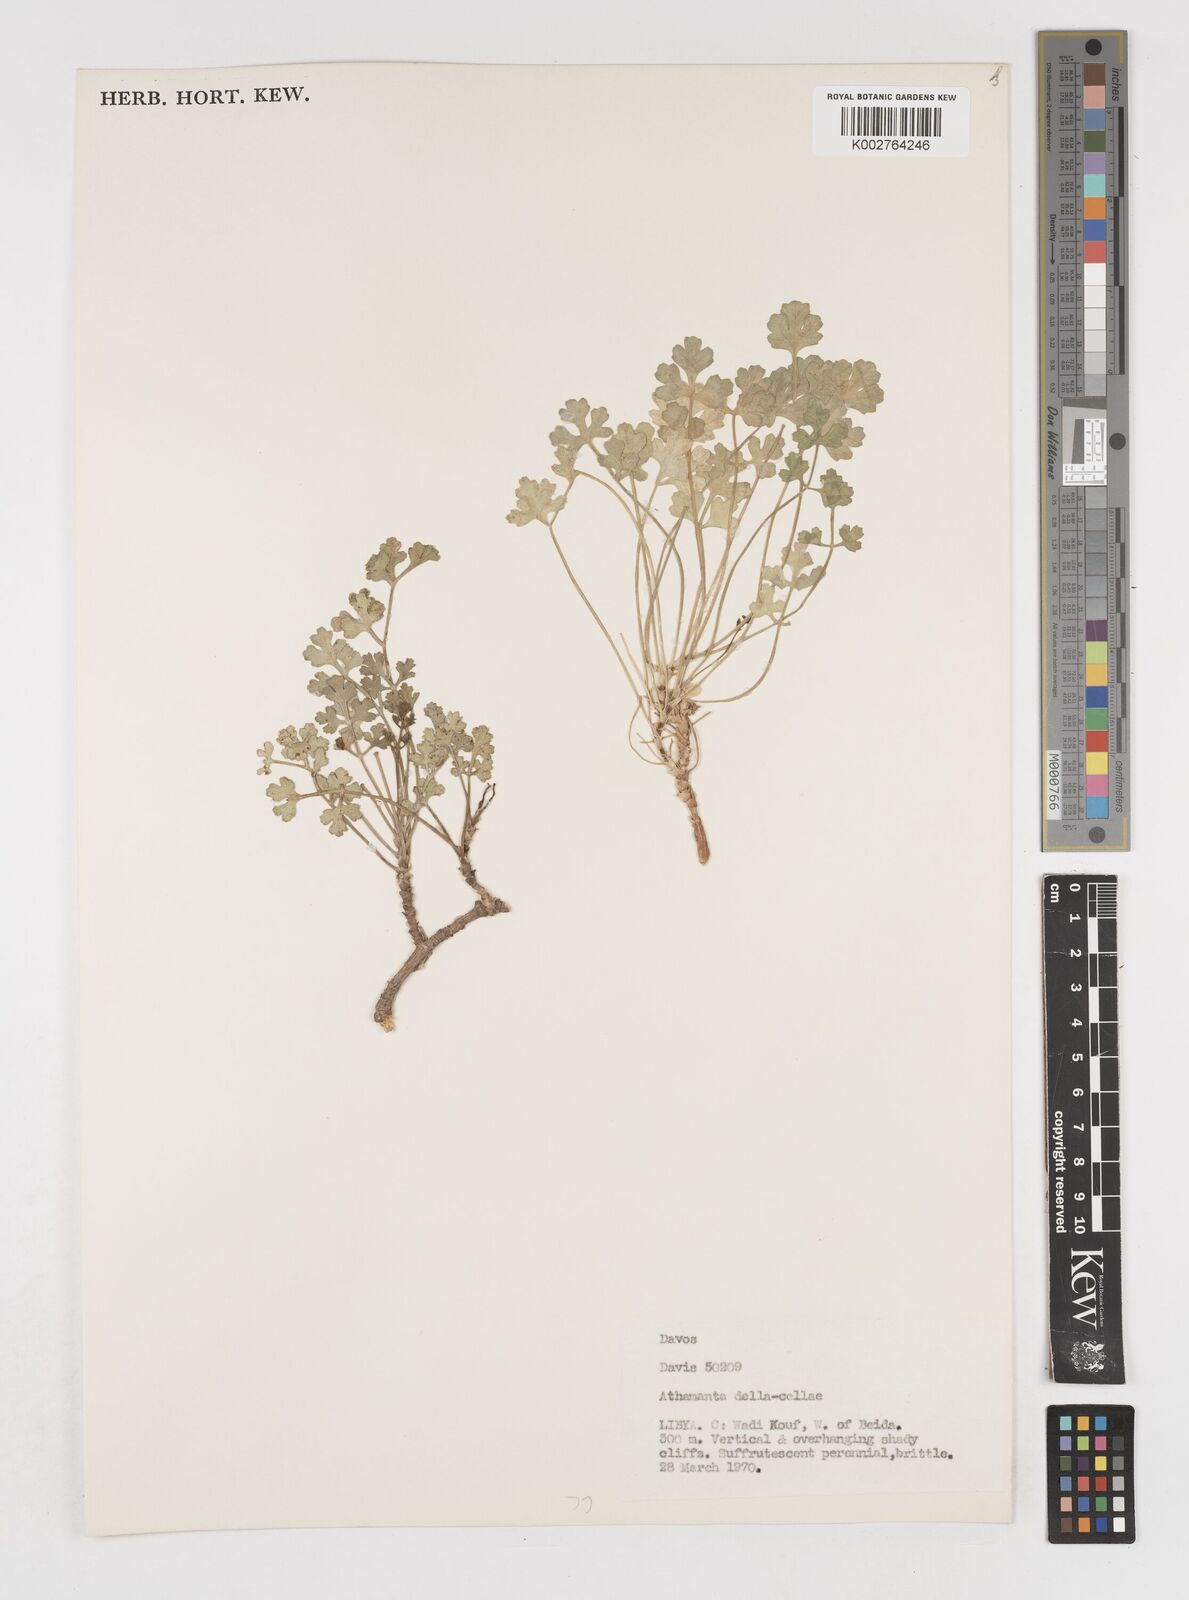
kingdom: Plantae
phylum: Tracheophyta
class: Magnoliopsida
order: Apiales
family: Apiaceae
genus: Daucus
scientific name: Daucus della-cellae
